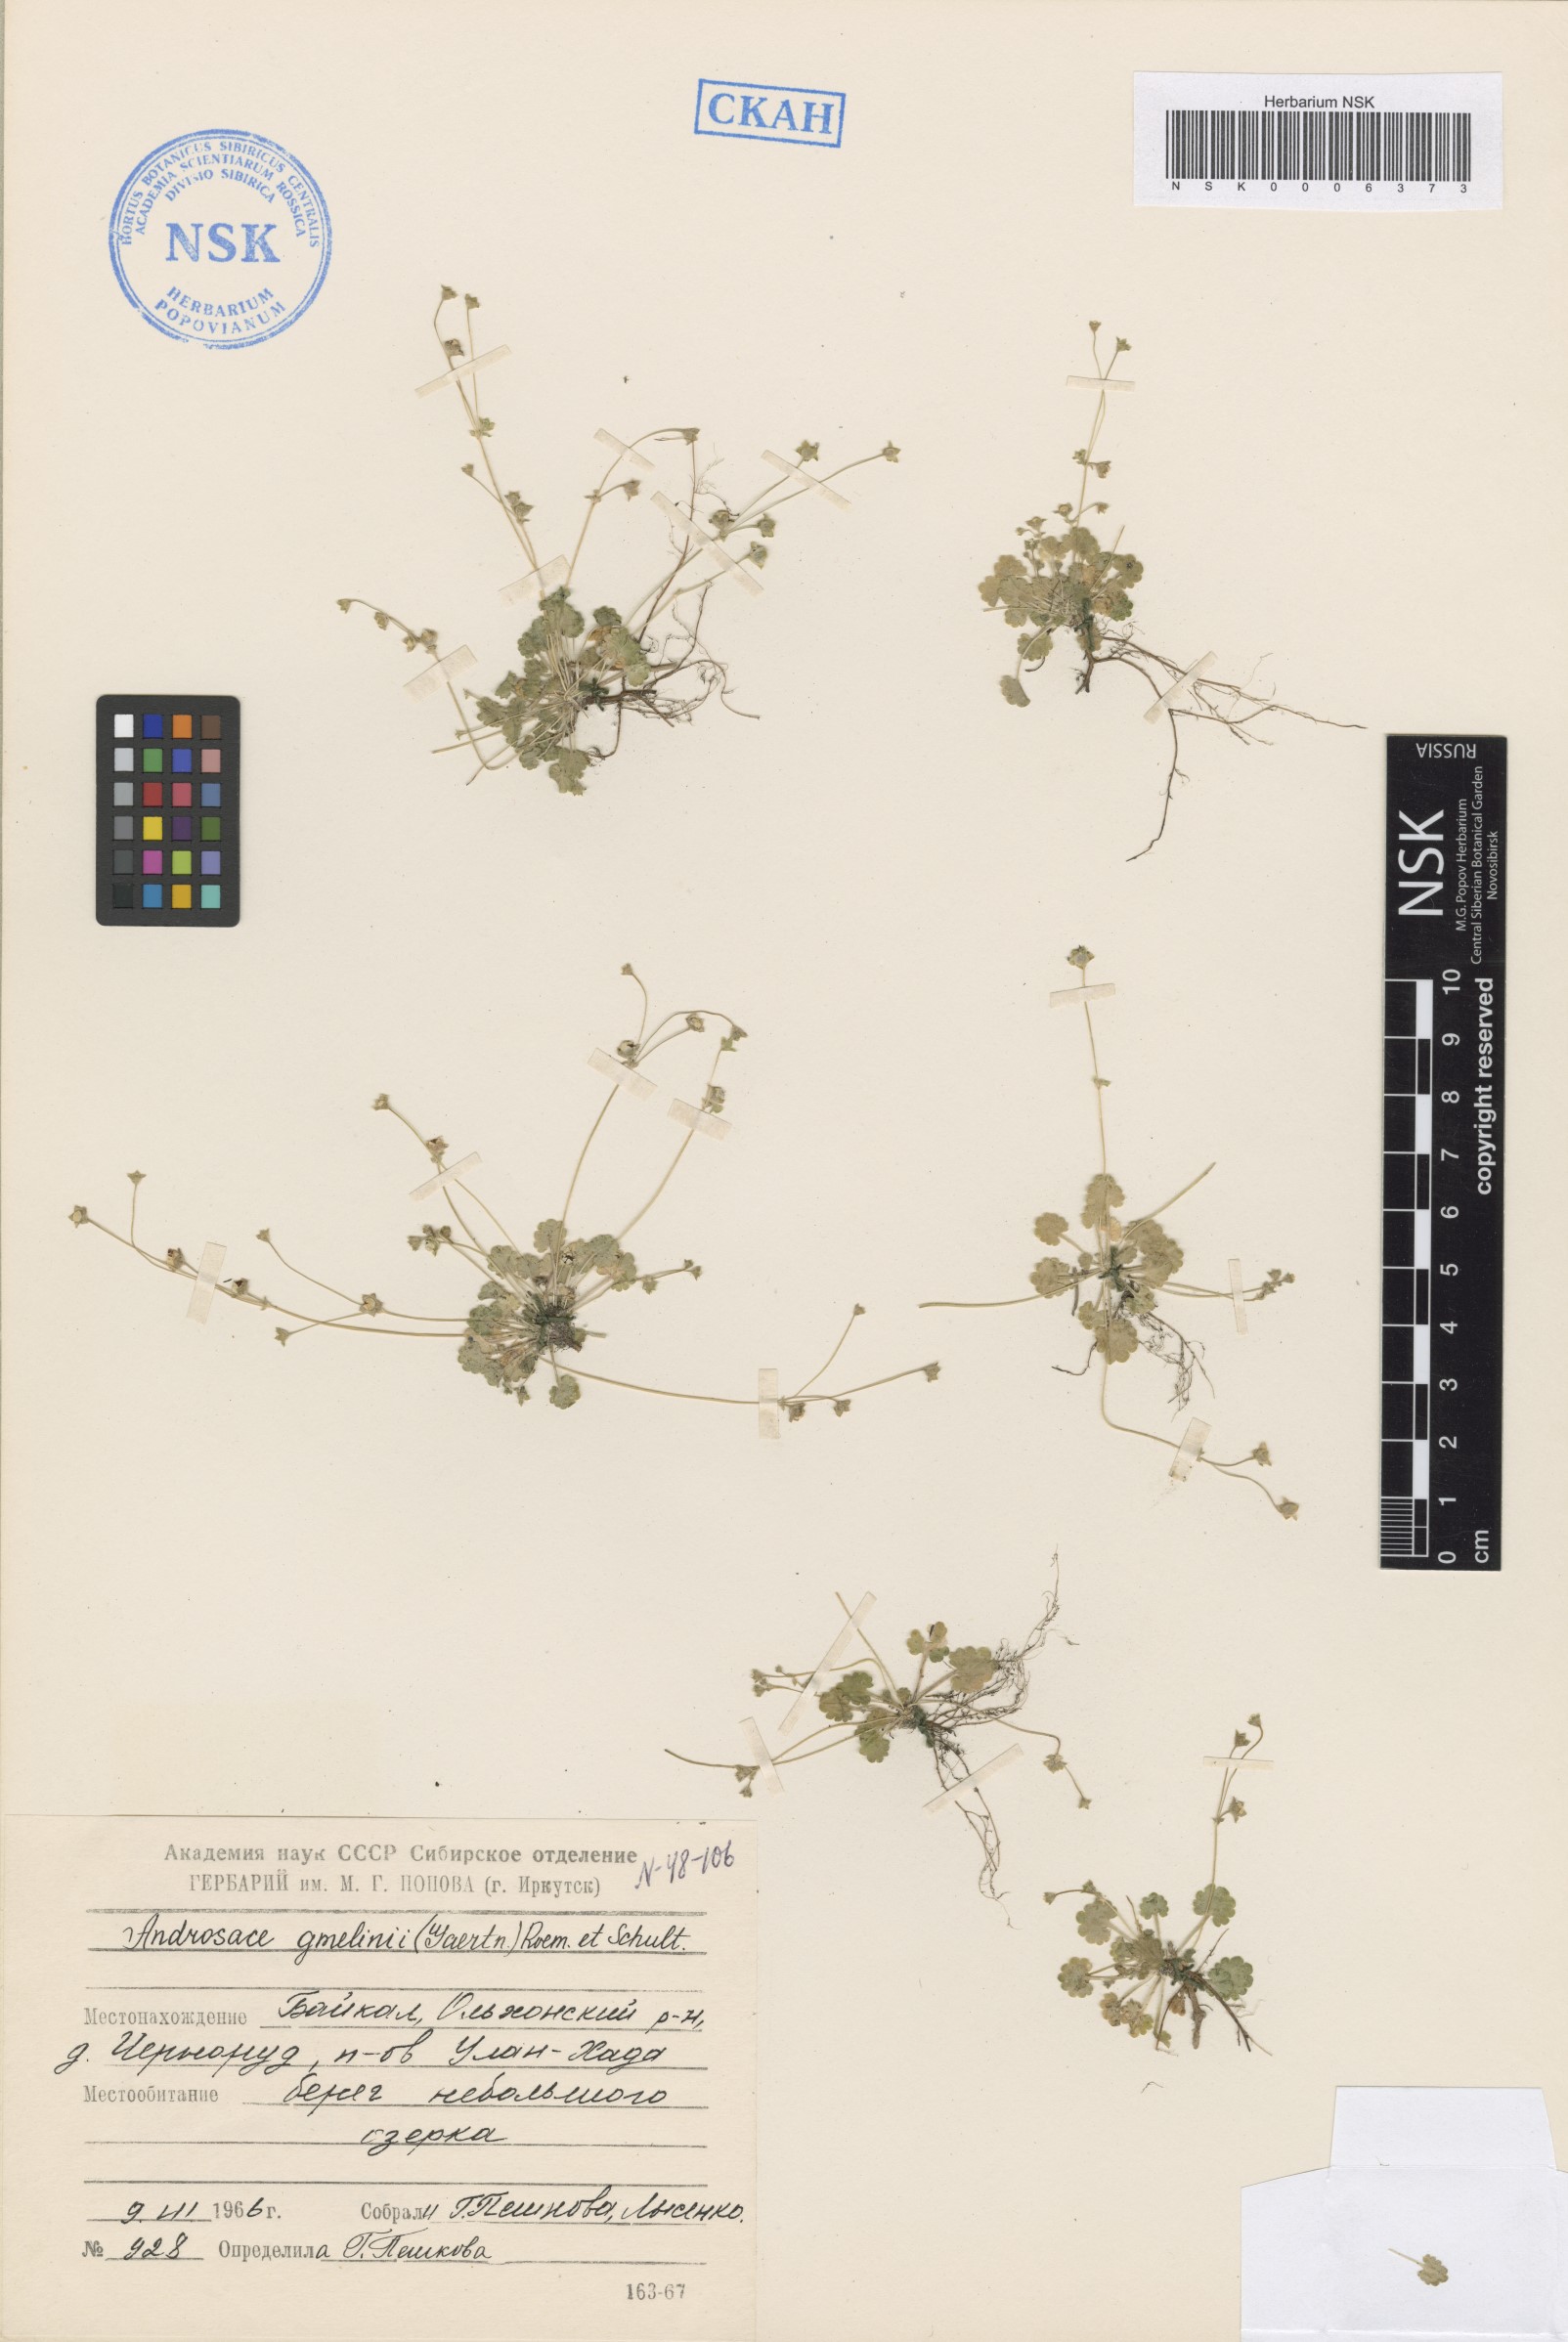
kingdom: Plantae
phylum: Tracheophyta
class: Magnoliopsida
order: Ericales
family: Primulaceae
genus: Androsace
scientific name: Androsace gmelinii
